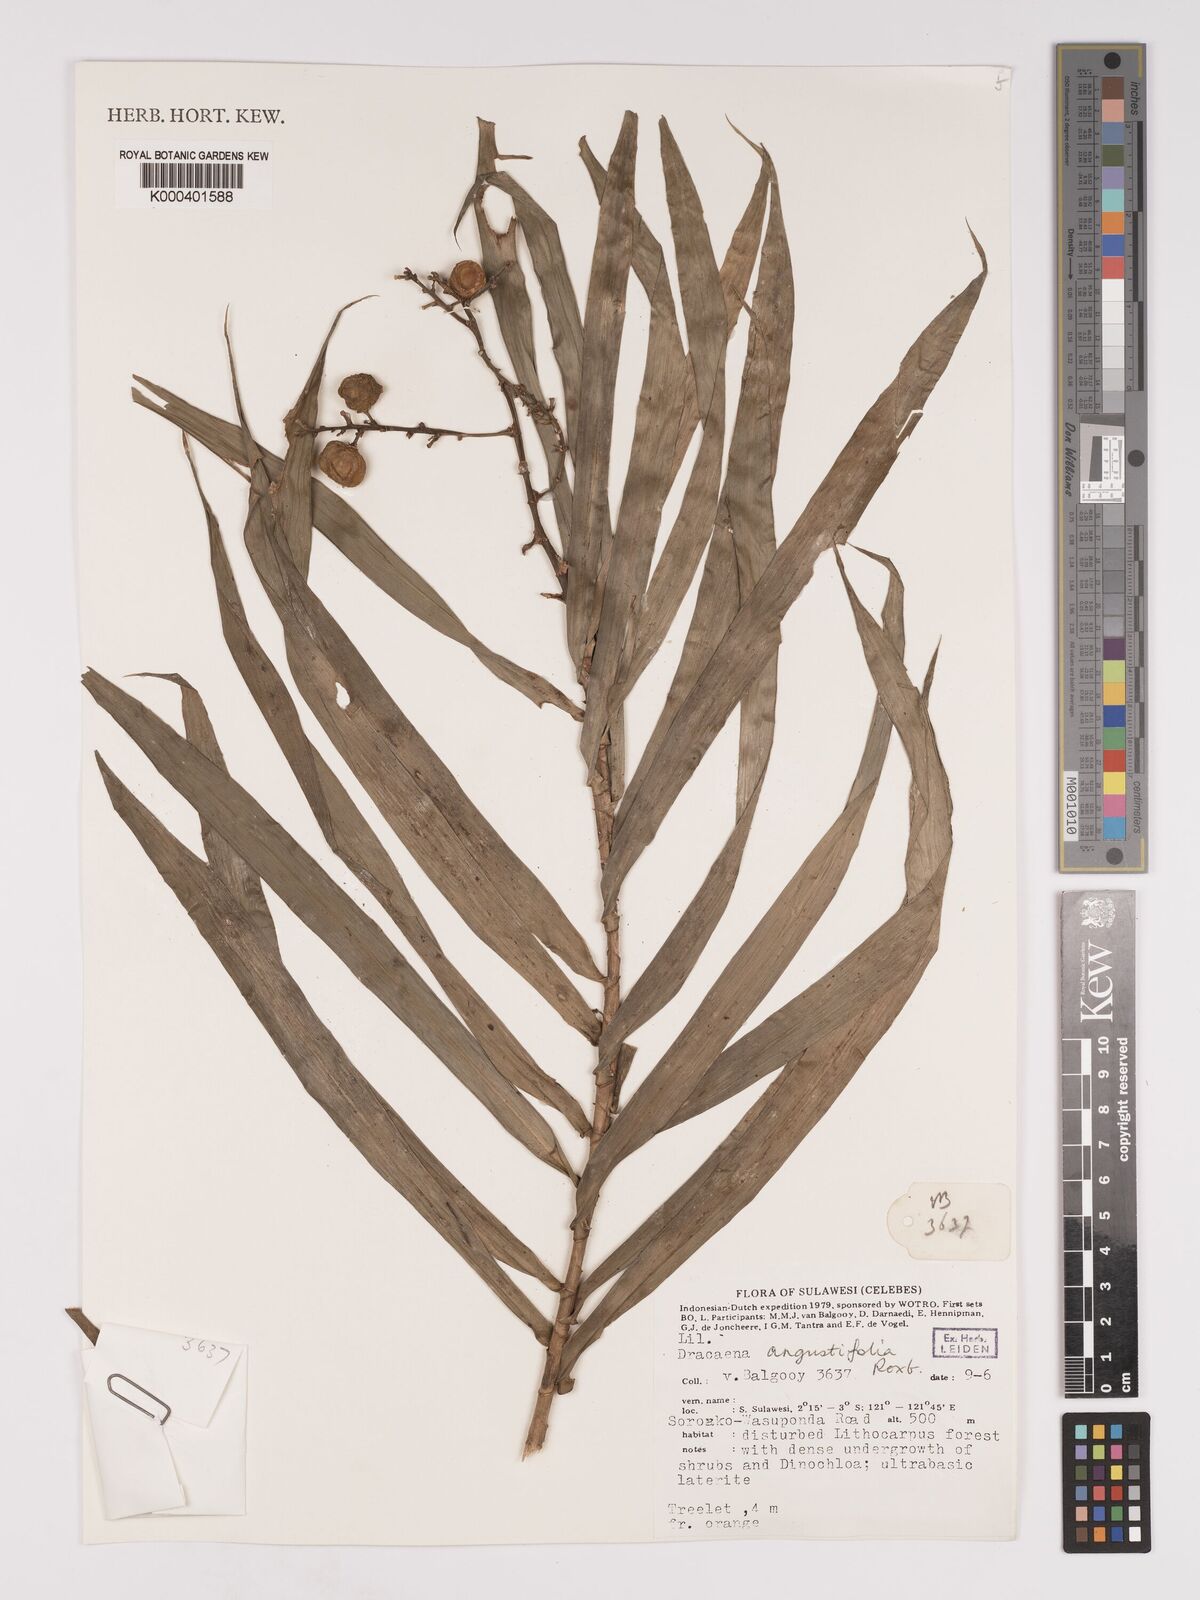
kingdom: Plantae
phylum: Tracheophyta
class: Liliopsida
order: Asparagales
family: Asparagaceae
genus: Dracaena
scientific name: Dracaena angustifolia
